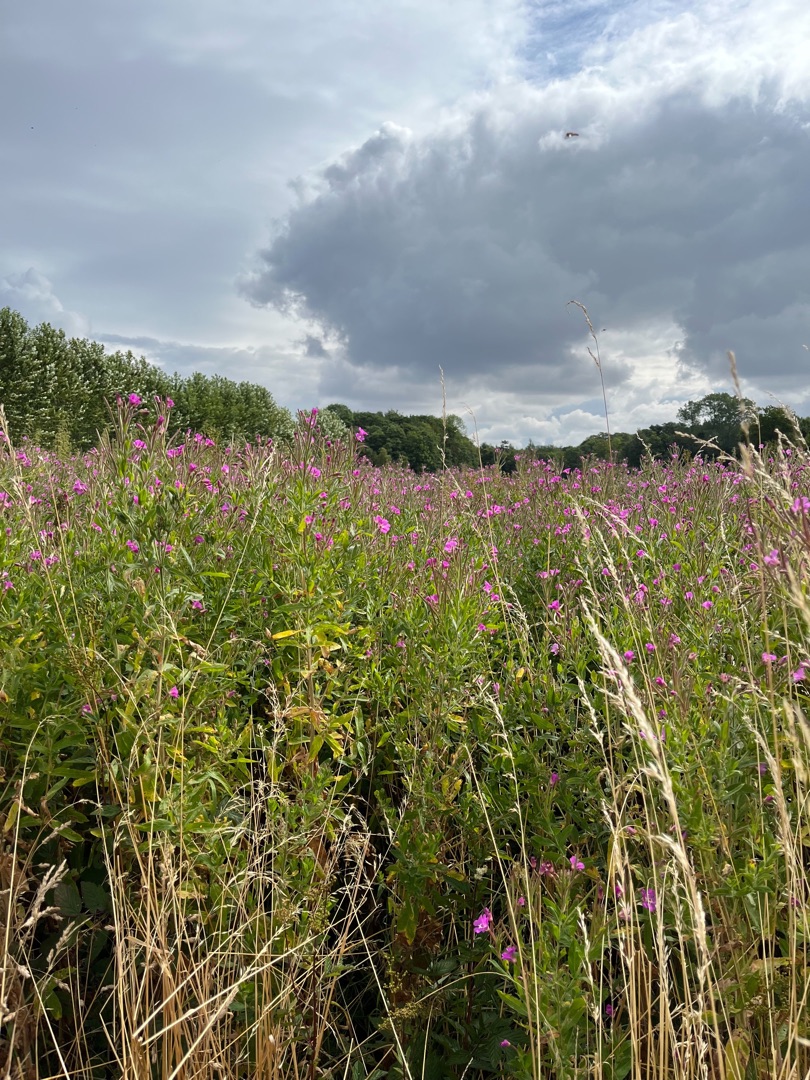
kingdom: Plantae
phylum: Tracheophyta
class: Magnoliopsida
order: Myrtales
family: Onagraceae
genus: Epilobium
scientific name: Epilobium hirsutum
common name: Lådden dueurt
